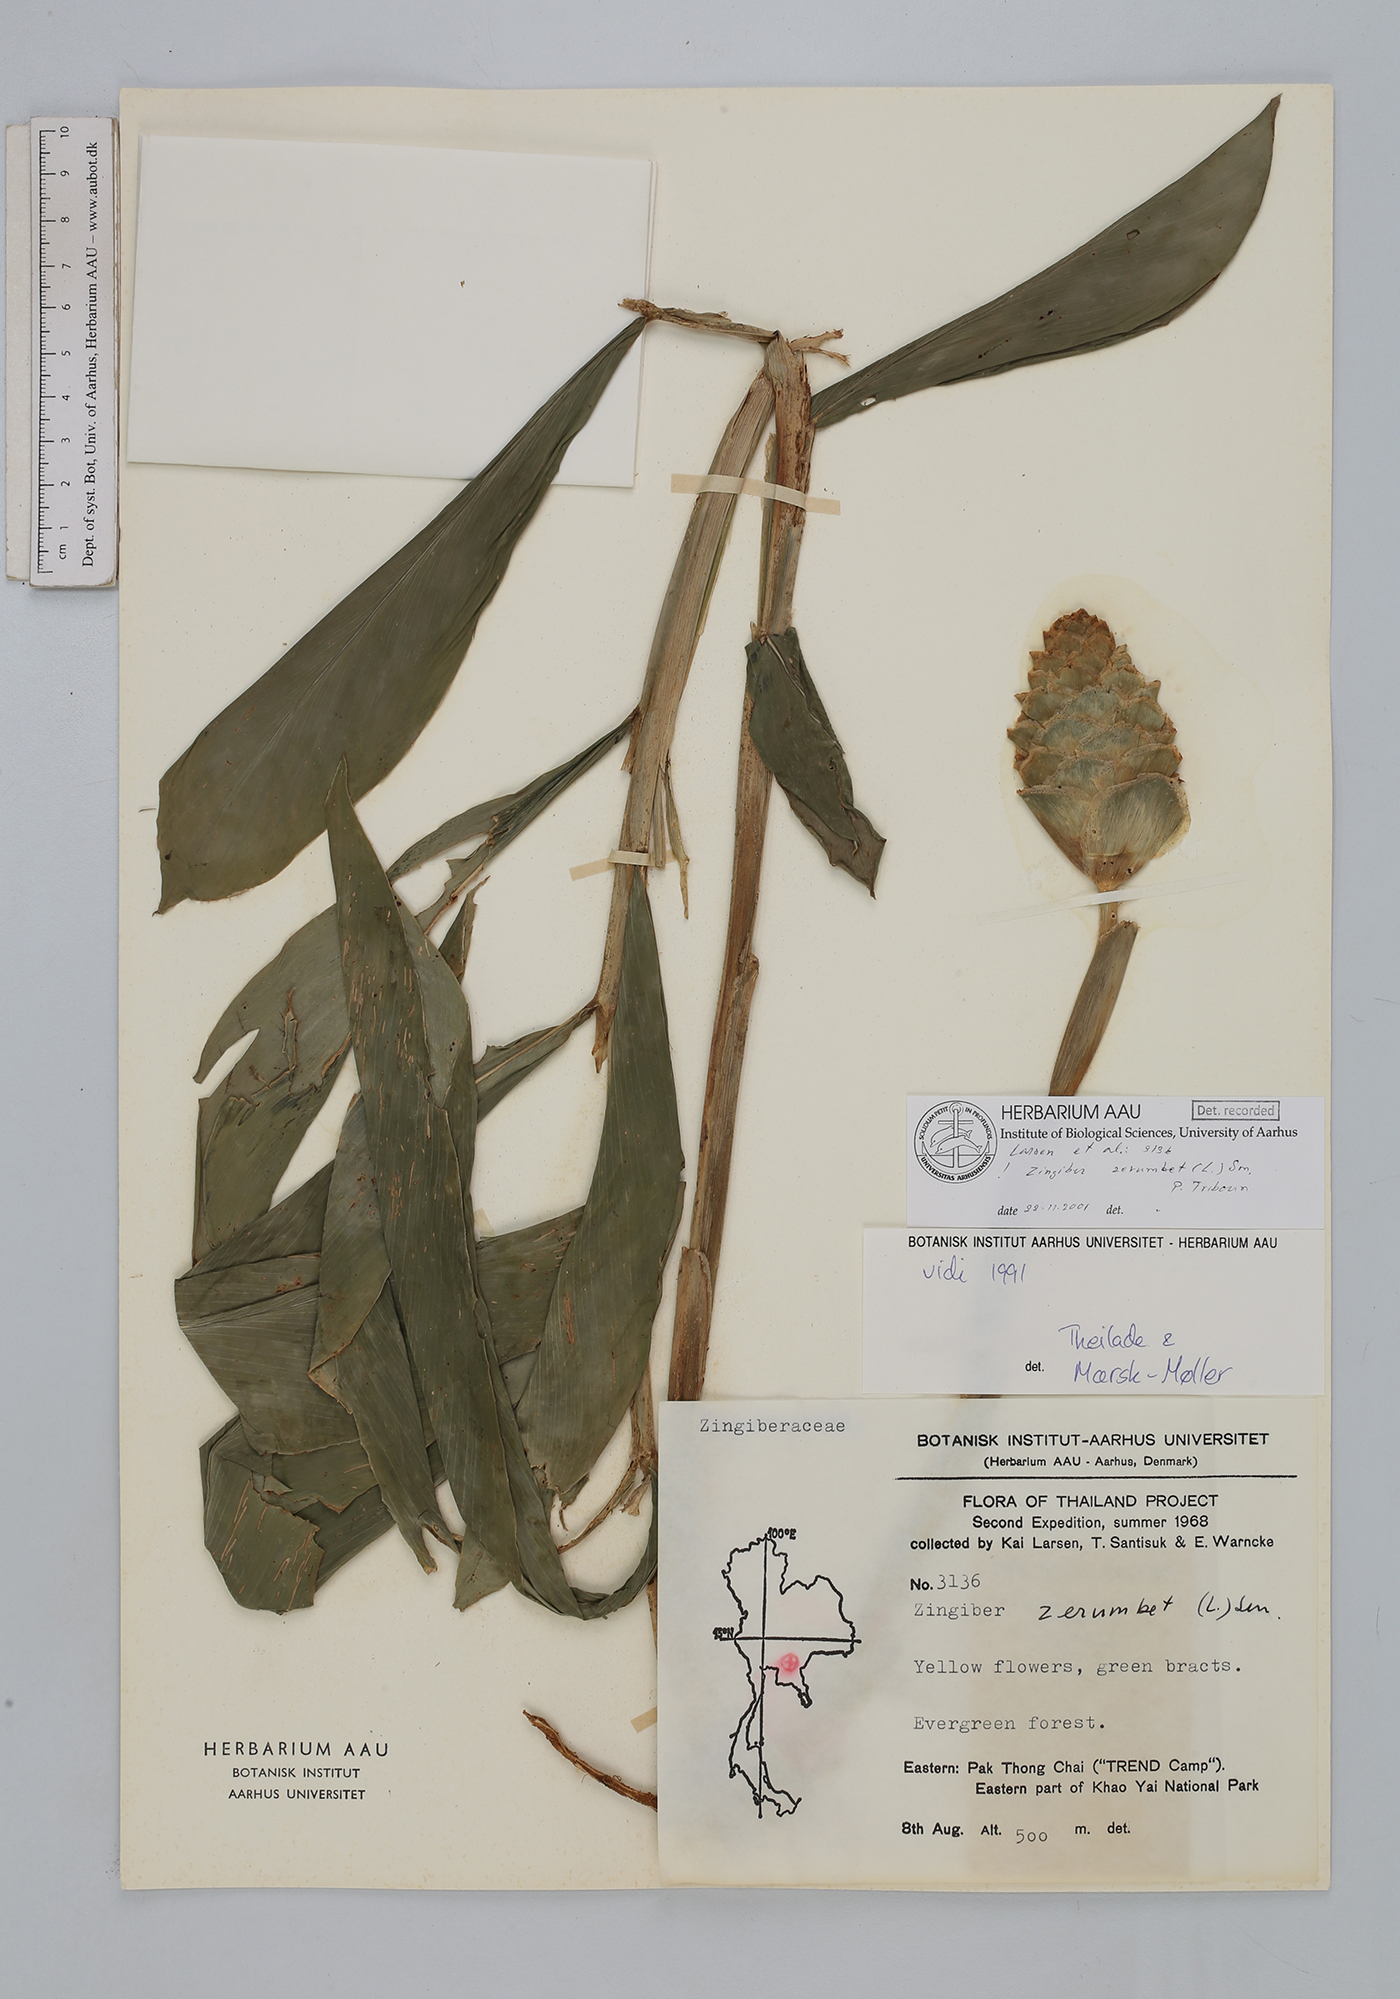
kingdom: Plantae
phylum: Tracheophyta
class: Liliopsida
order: Zingiberales
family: Zingiberaceae
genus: Zingiber
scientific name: Zingiber zerumbet
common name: Bitter ginger
